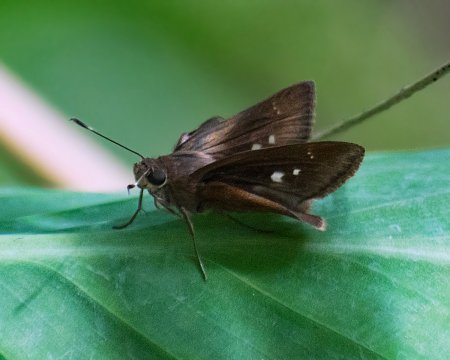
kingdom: Animalia
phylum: Arthropoda
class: Insecta
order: Lepidoptera
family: Hesperiidae
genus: Quinta
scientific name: Quinta cannae
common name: Canna Skipper
